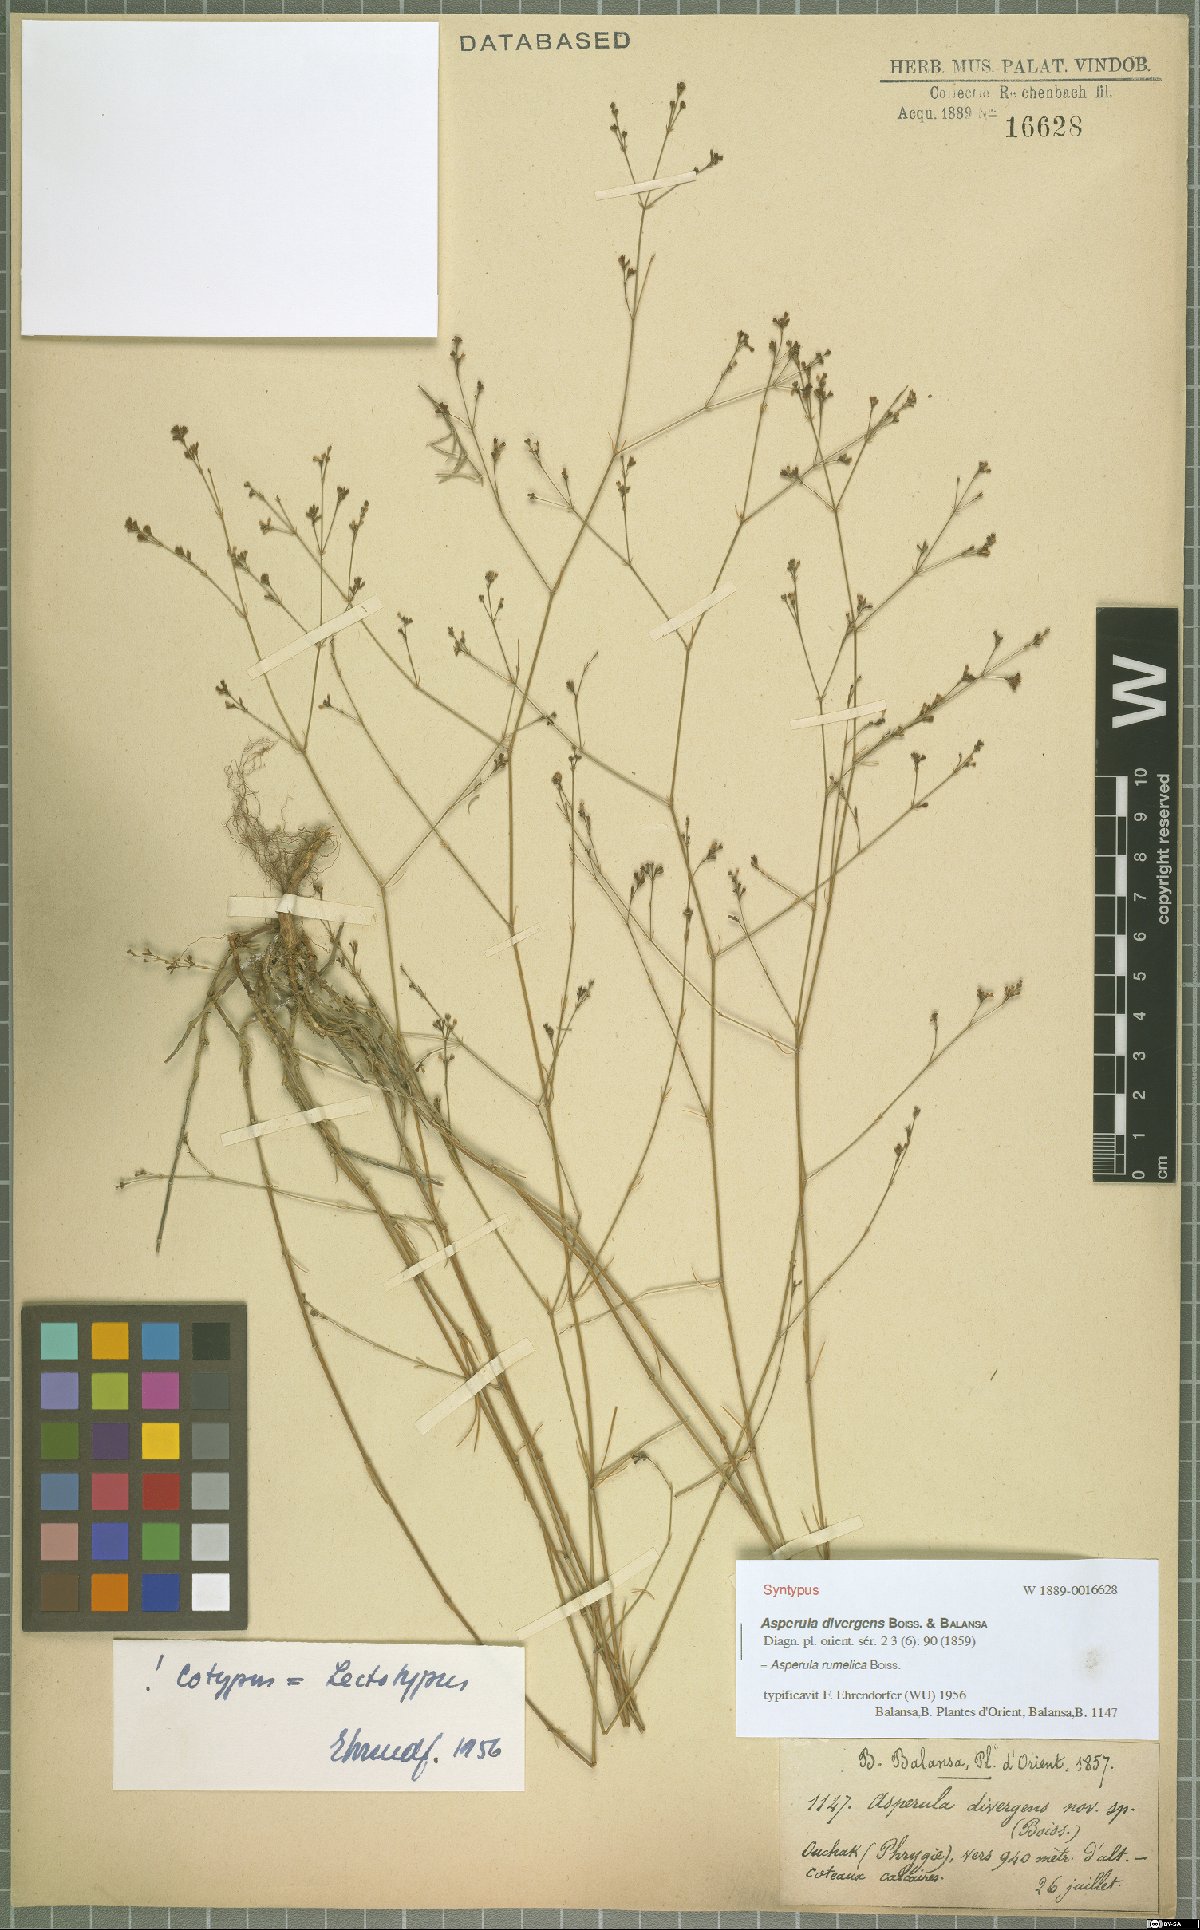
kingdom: Plantae
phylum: Tracheophyta
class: Magnoliopsida
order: Gentianales
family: Rubiaceae
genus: Cynanchica
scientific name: Cynanchica rumelica
